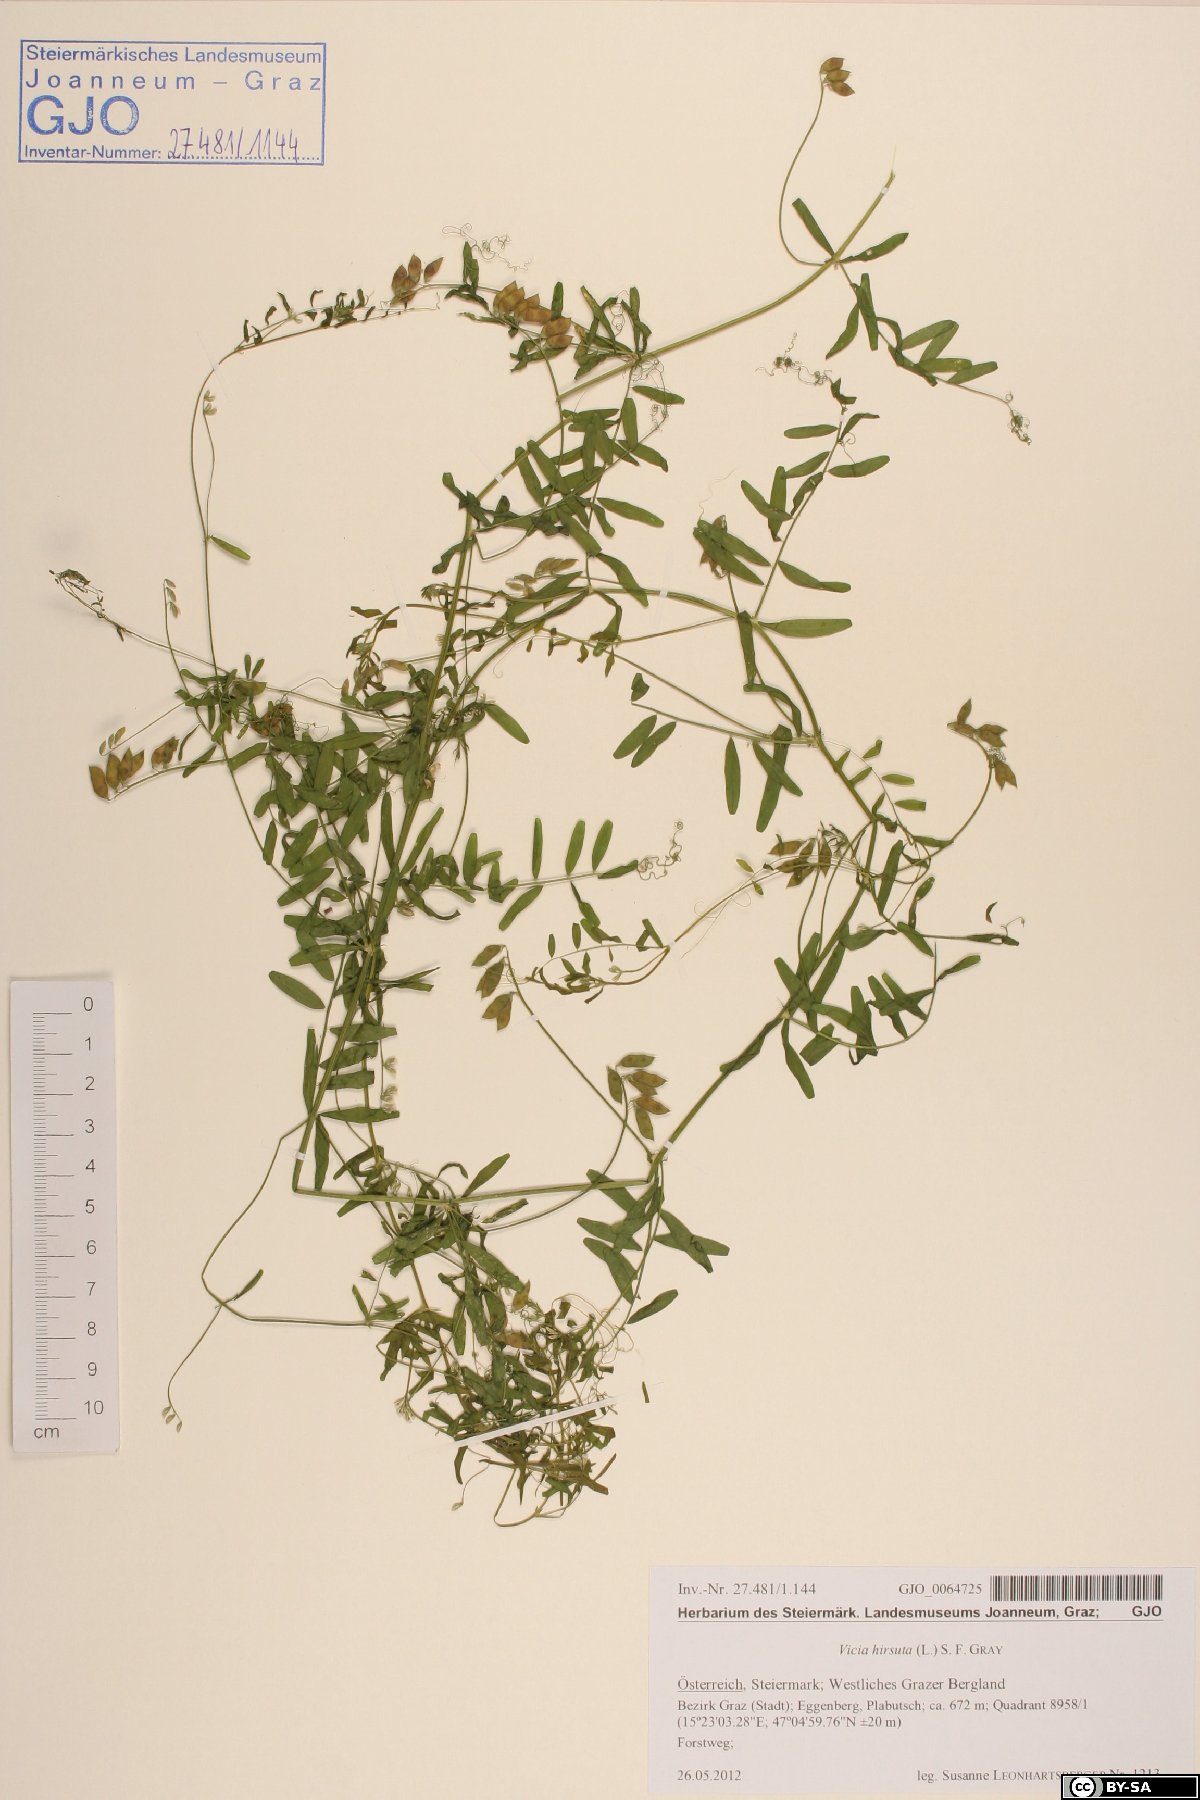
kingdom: Plantae
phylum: Tracheophyta
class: Magnoliopsida
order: Fabales
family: Fabaceae
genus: Vicia
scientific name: Vicia hirsuta
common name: Tiny vetch
